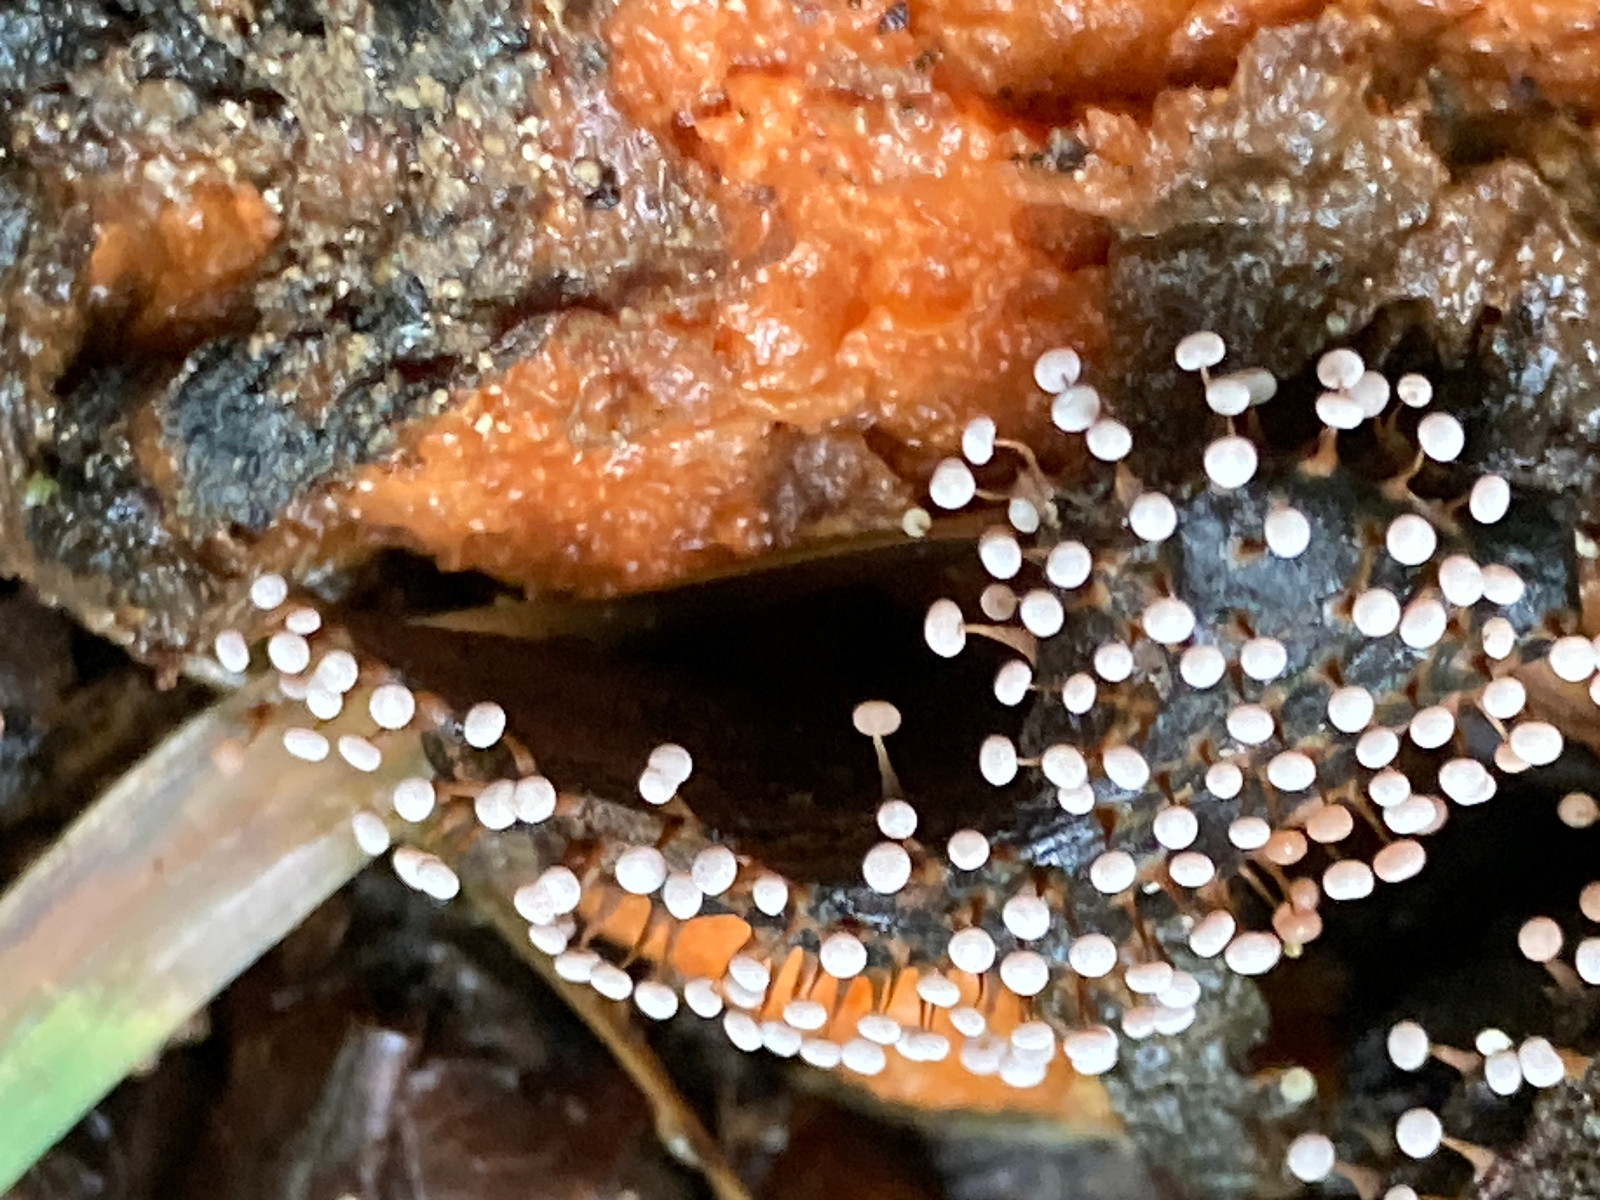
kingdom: Protozoa
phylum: Mycetozoa
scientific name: Mycetozoa
